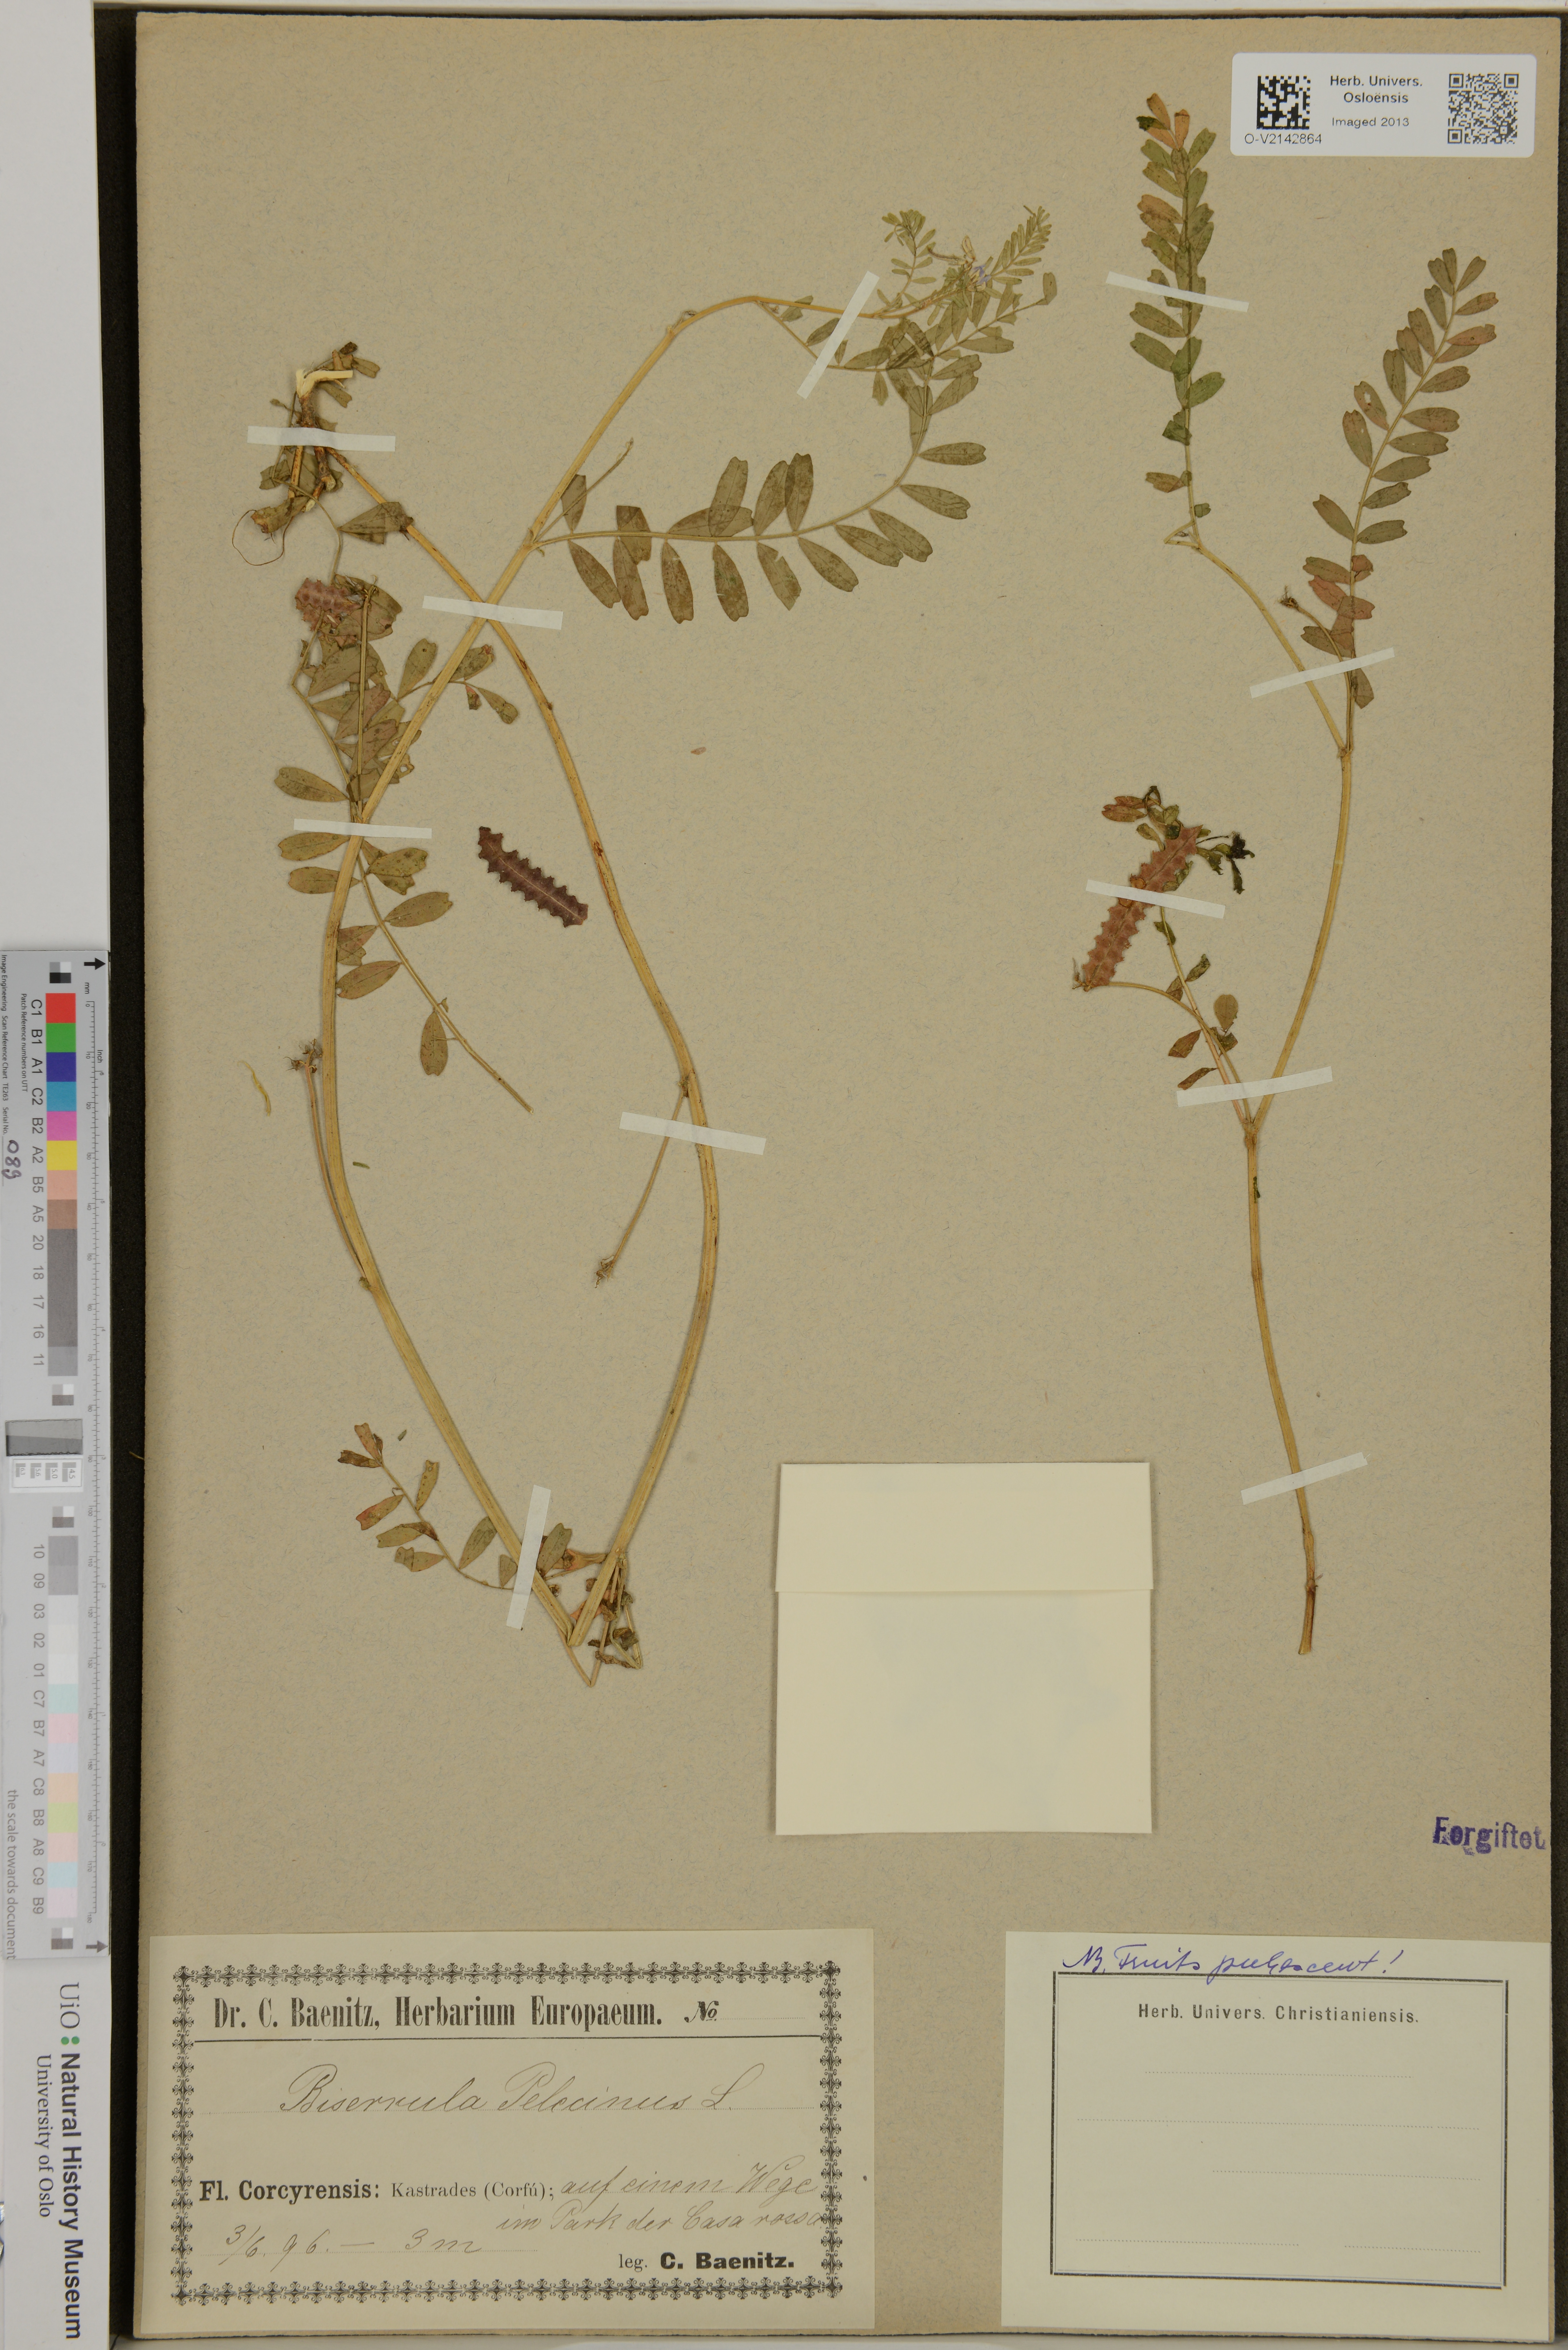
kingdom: Plantae
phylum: Tracheophyta
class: Magnoliopsida
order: Fabales
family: Fabaceae
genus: Biserrula
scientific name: Biserrula pelecinus
